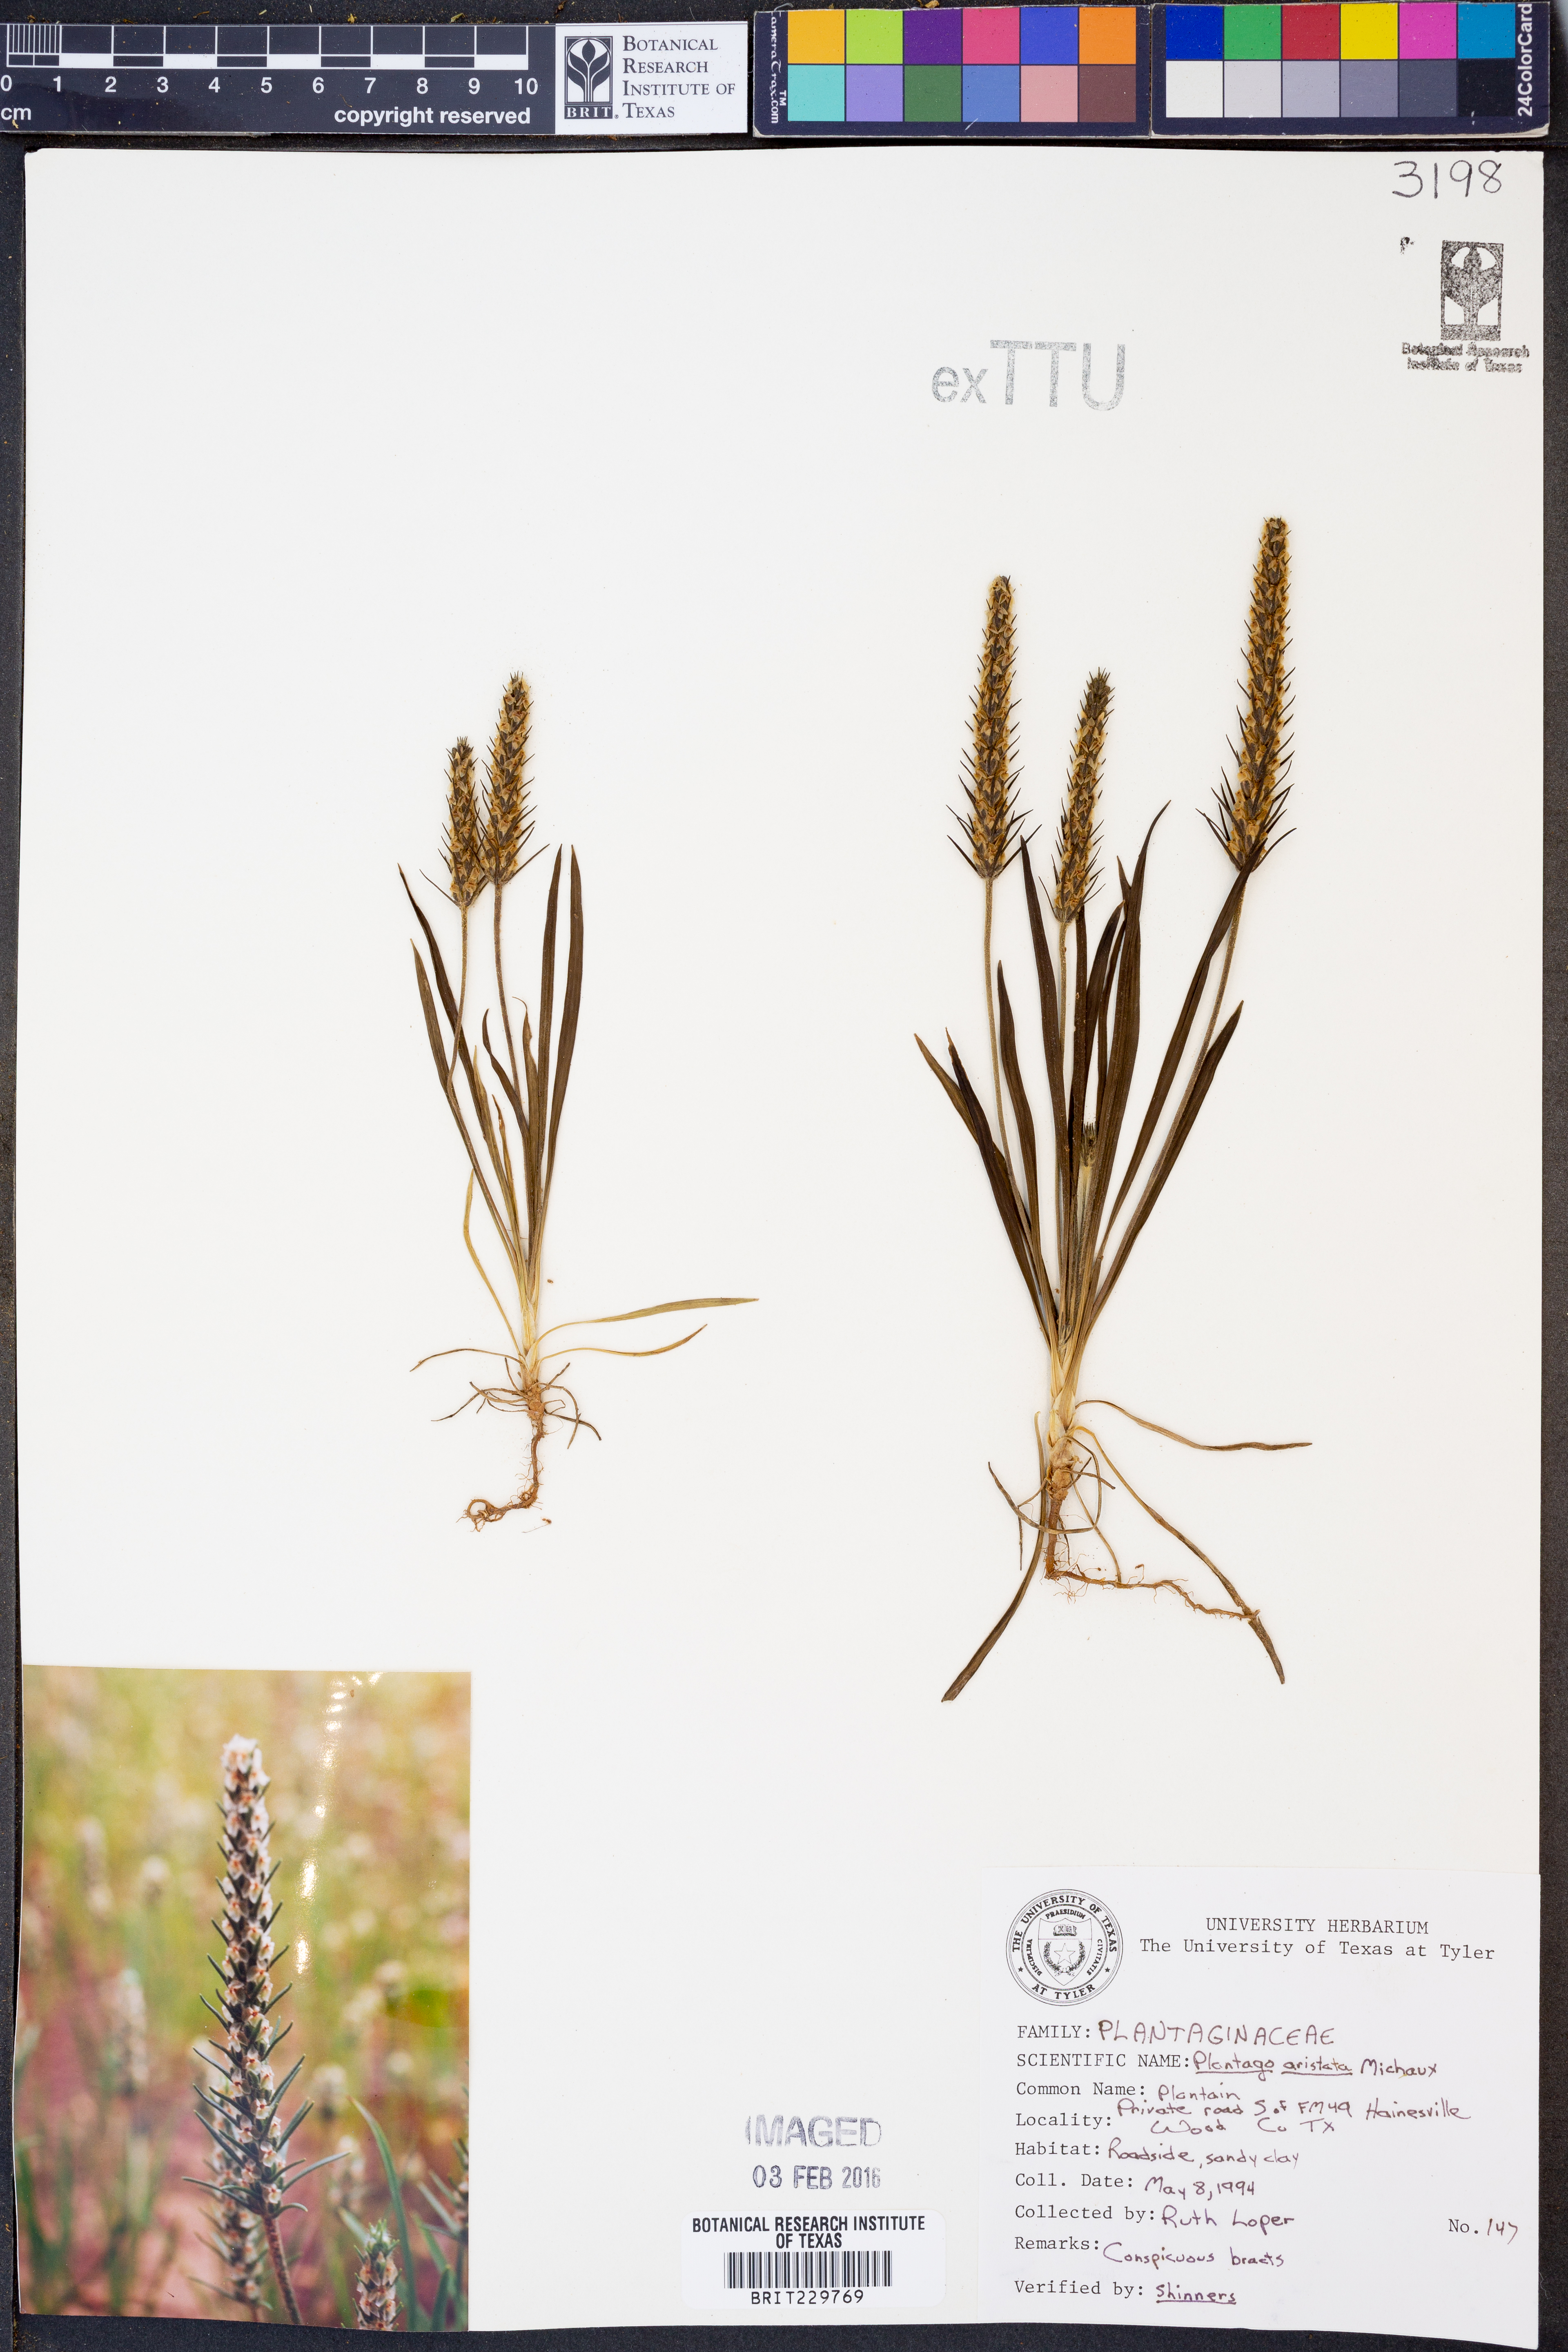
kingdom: Plantae
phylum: Tracheophyta
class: Magnoliopsida
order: Lamiales
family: Plantaginaceae
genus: Plantago
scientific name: Plantago aristata
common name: Bracted plantain
